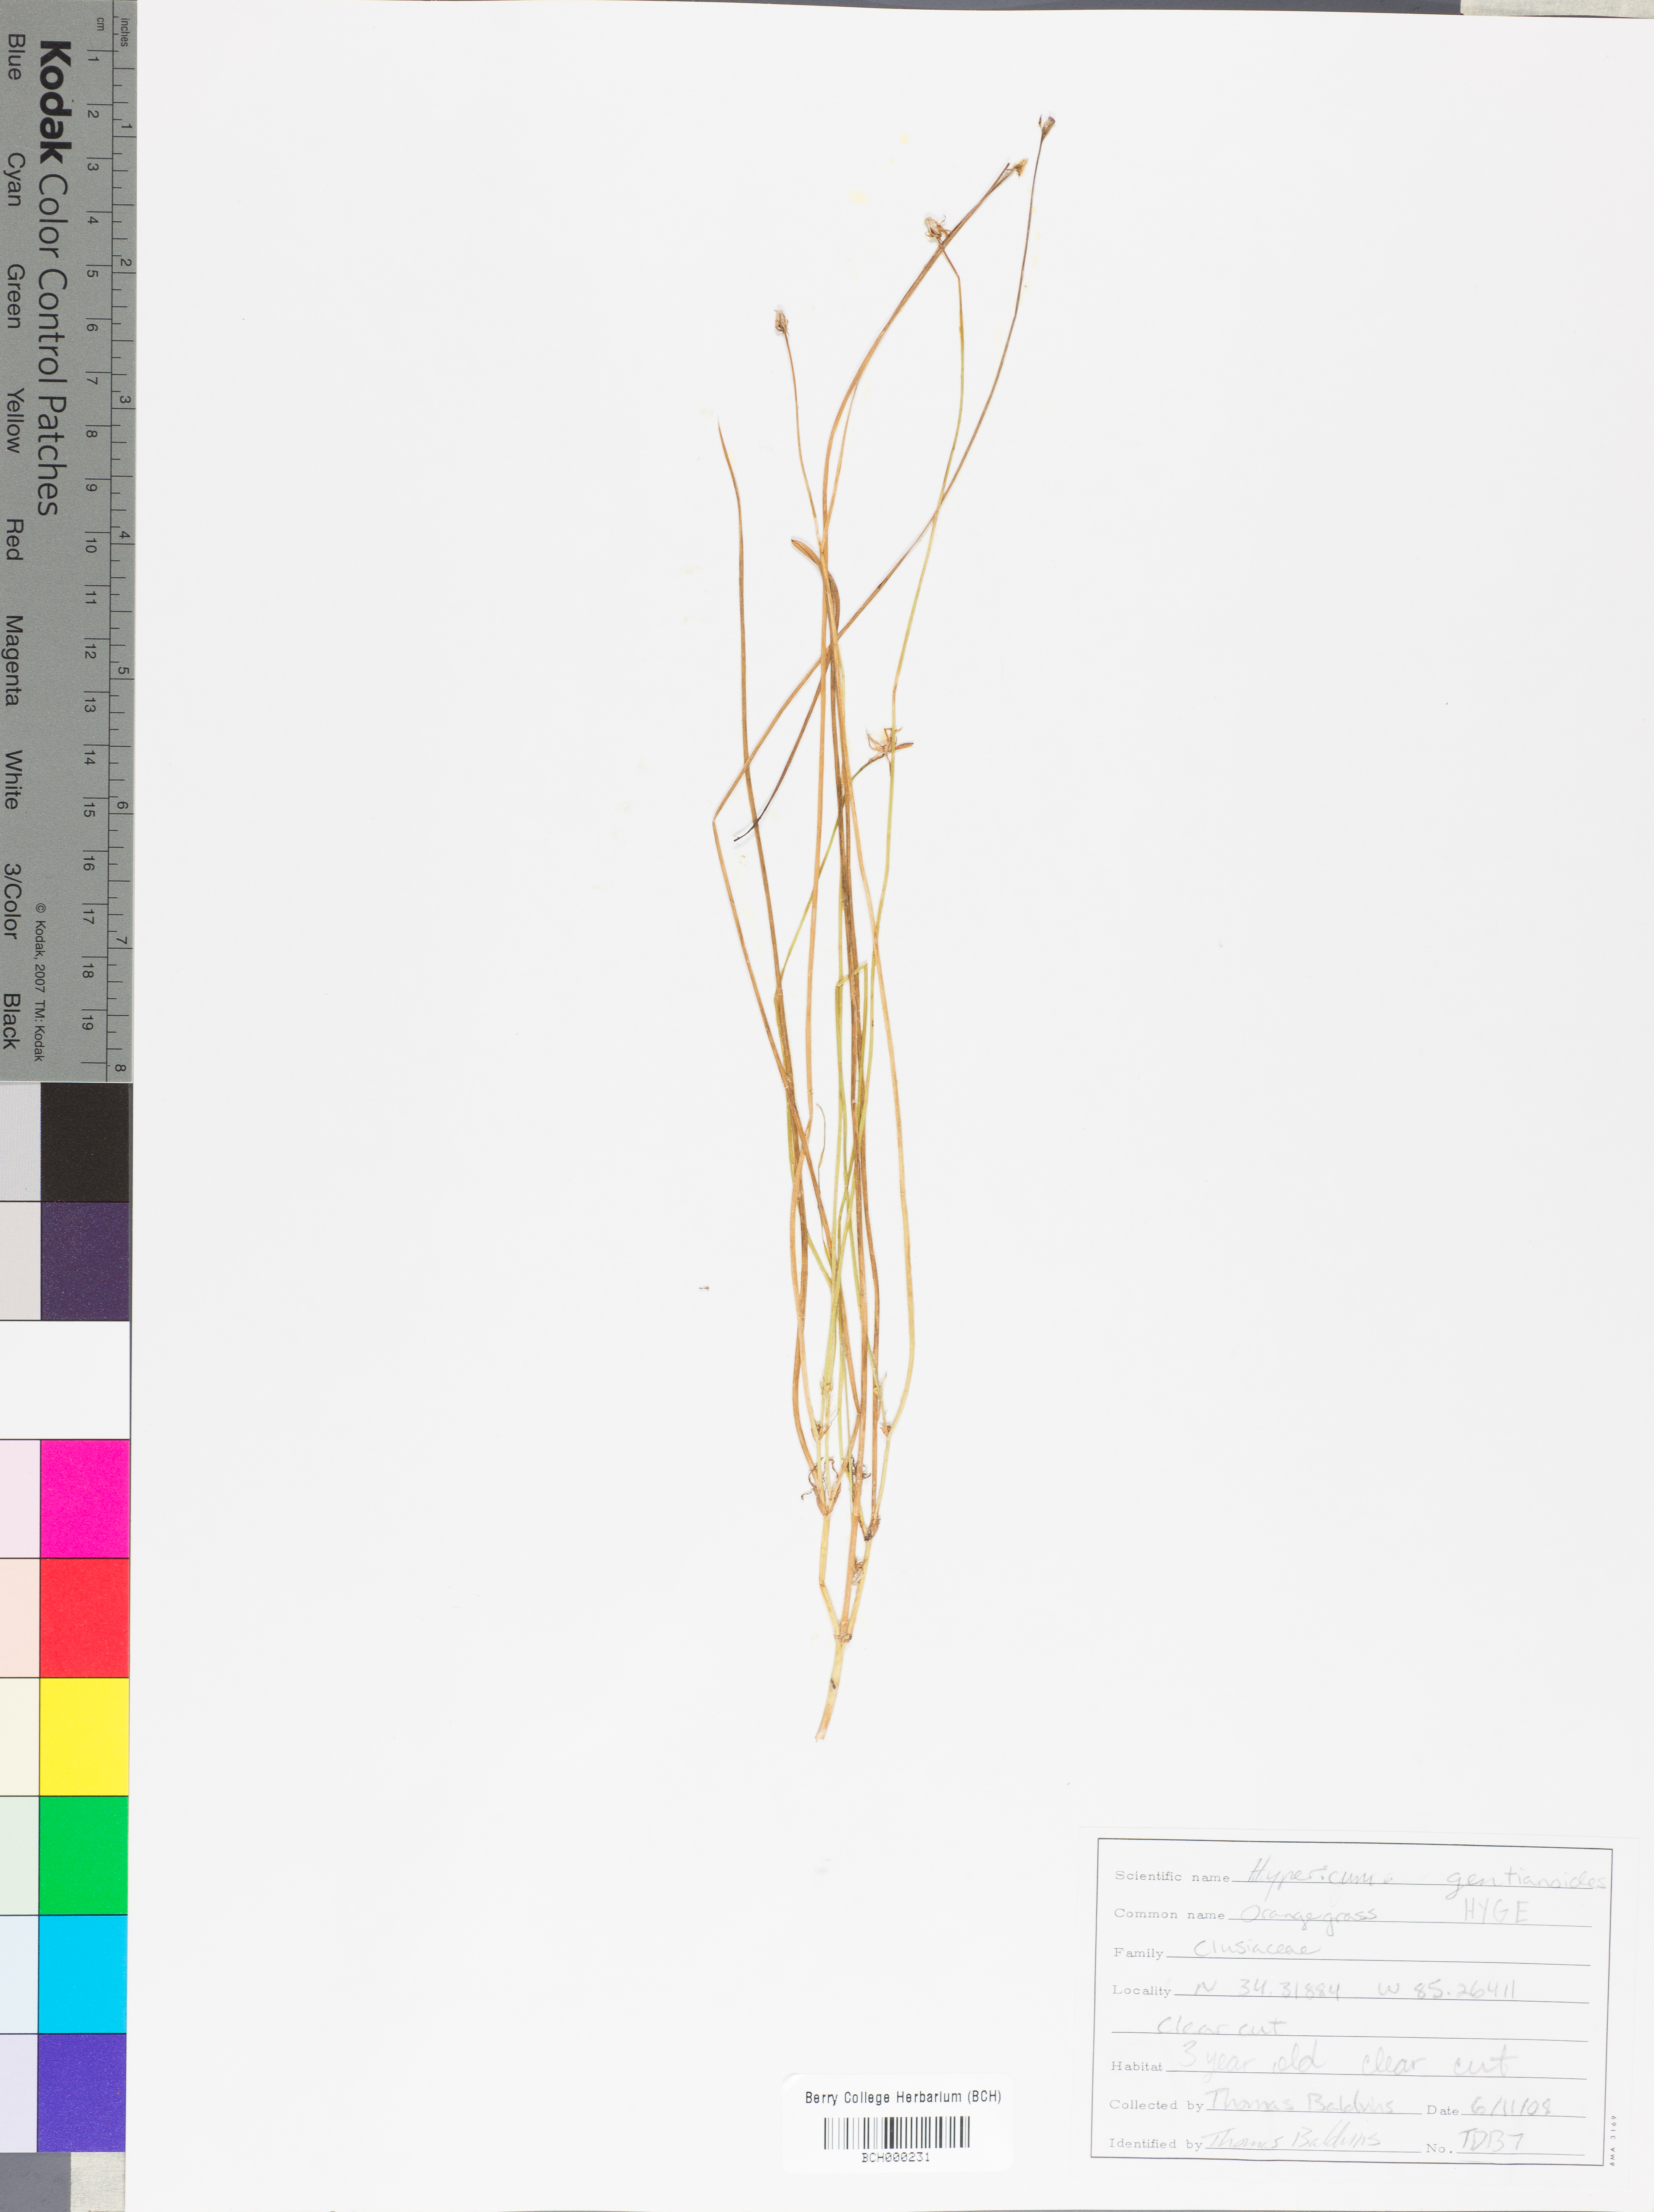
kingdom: Plantae
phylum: Tracheophyta
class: Magnoliopsida
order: Malpighiales
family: Hypericaceae
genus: Hypericum
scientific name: Hypericum gentianoides
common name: Gentian-leaved st. john's-wort
